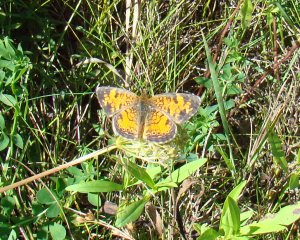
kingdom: Animalia
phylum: Arthropoda
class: Insecta
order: Lepidoptera
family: Nymphalidae
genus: Phyciodes
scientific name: Phyciodes tharos
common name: Northern Crescent
